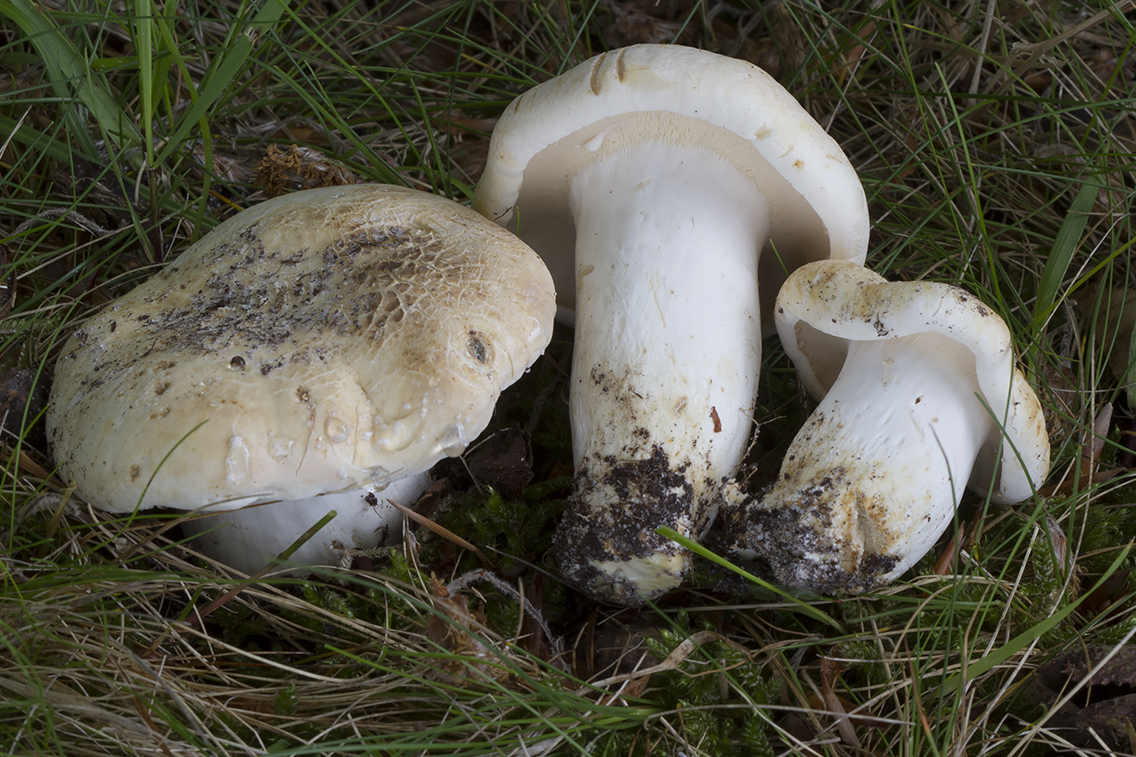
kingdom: Fungi
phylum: Basidiomycota
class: Agaricomycetes
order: Russulales
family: Russulaceae
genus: Lactifluus
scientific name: Lactifluus piperatus
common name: peber-mælkehat
